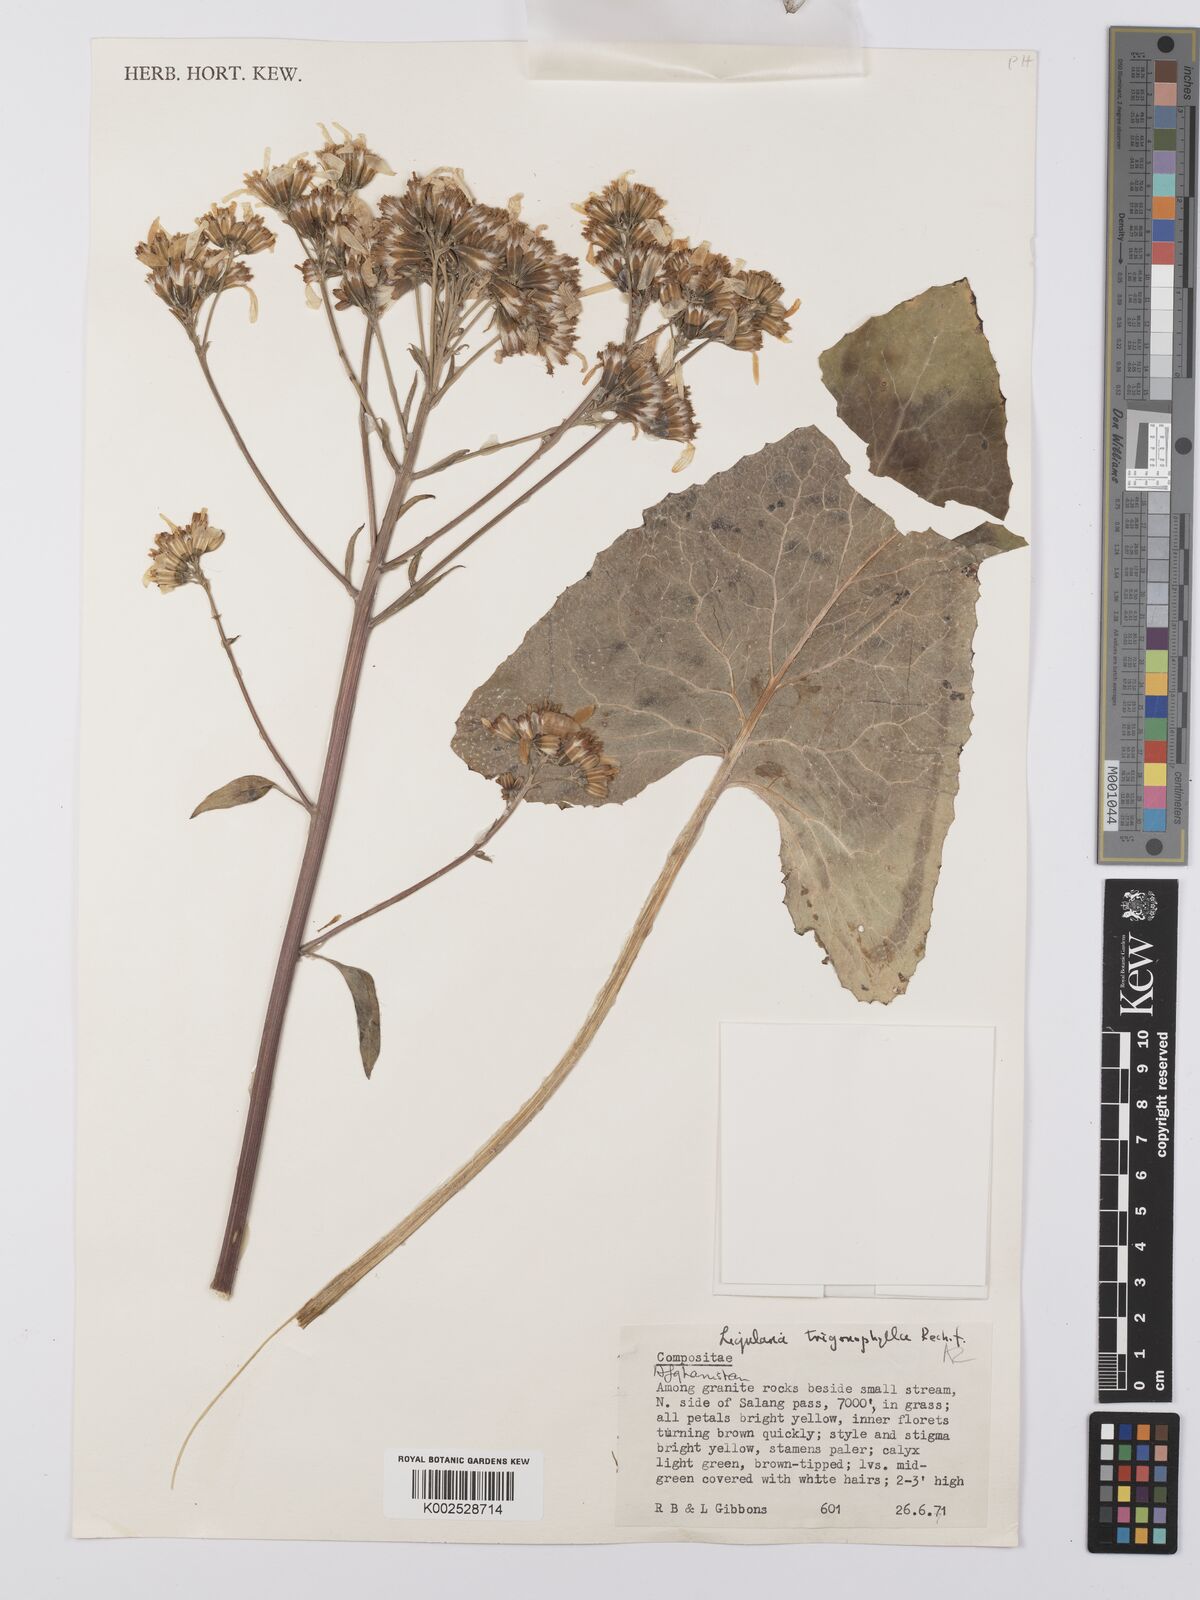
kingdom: Plantae
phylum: Tracheophyta
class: Magnoliopsida
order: Asterales
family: Asteraceae
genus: Vickifunkia
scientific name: Vickifunkia thomsonii
